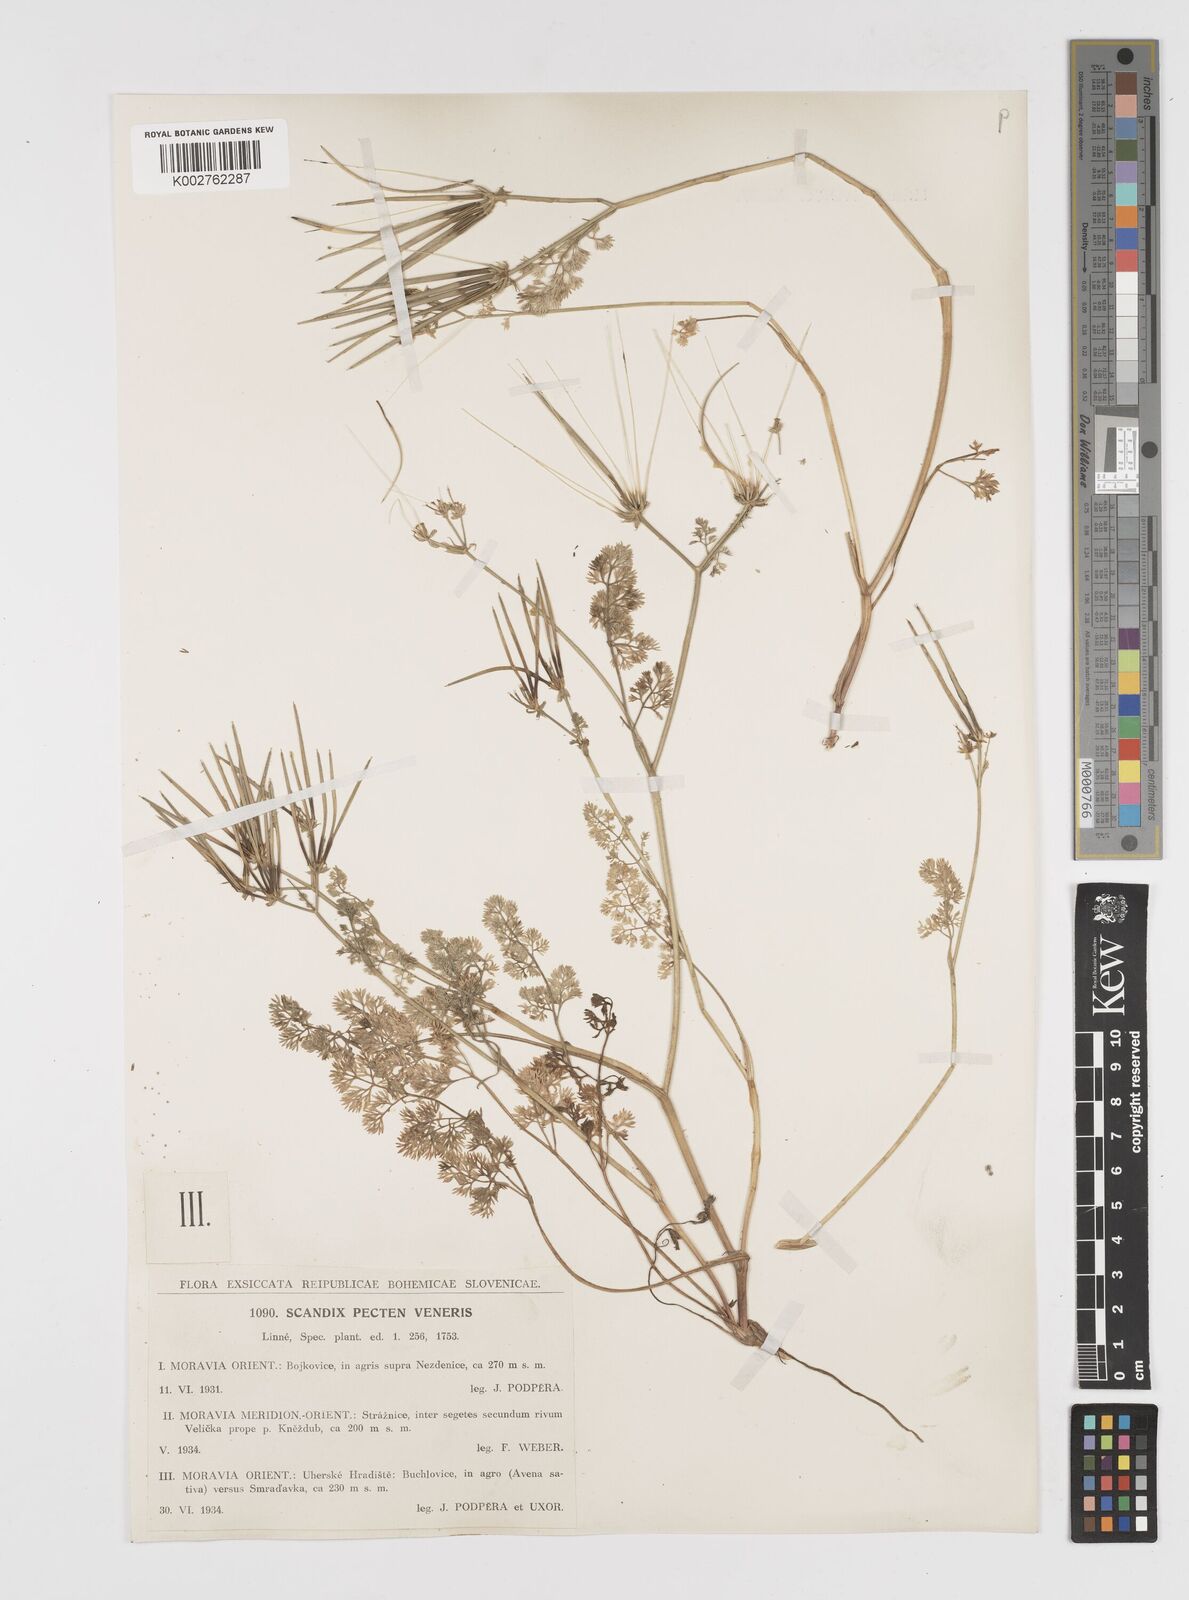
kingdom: Plantae
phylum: Tracheophyta
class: Magnoliopsida
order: Apiales
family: Apiaceae
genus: Scandix
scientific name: Scandix pecten-veneris
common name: Shepherd's-needle
